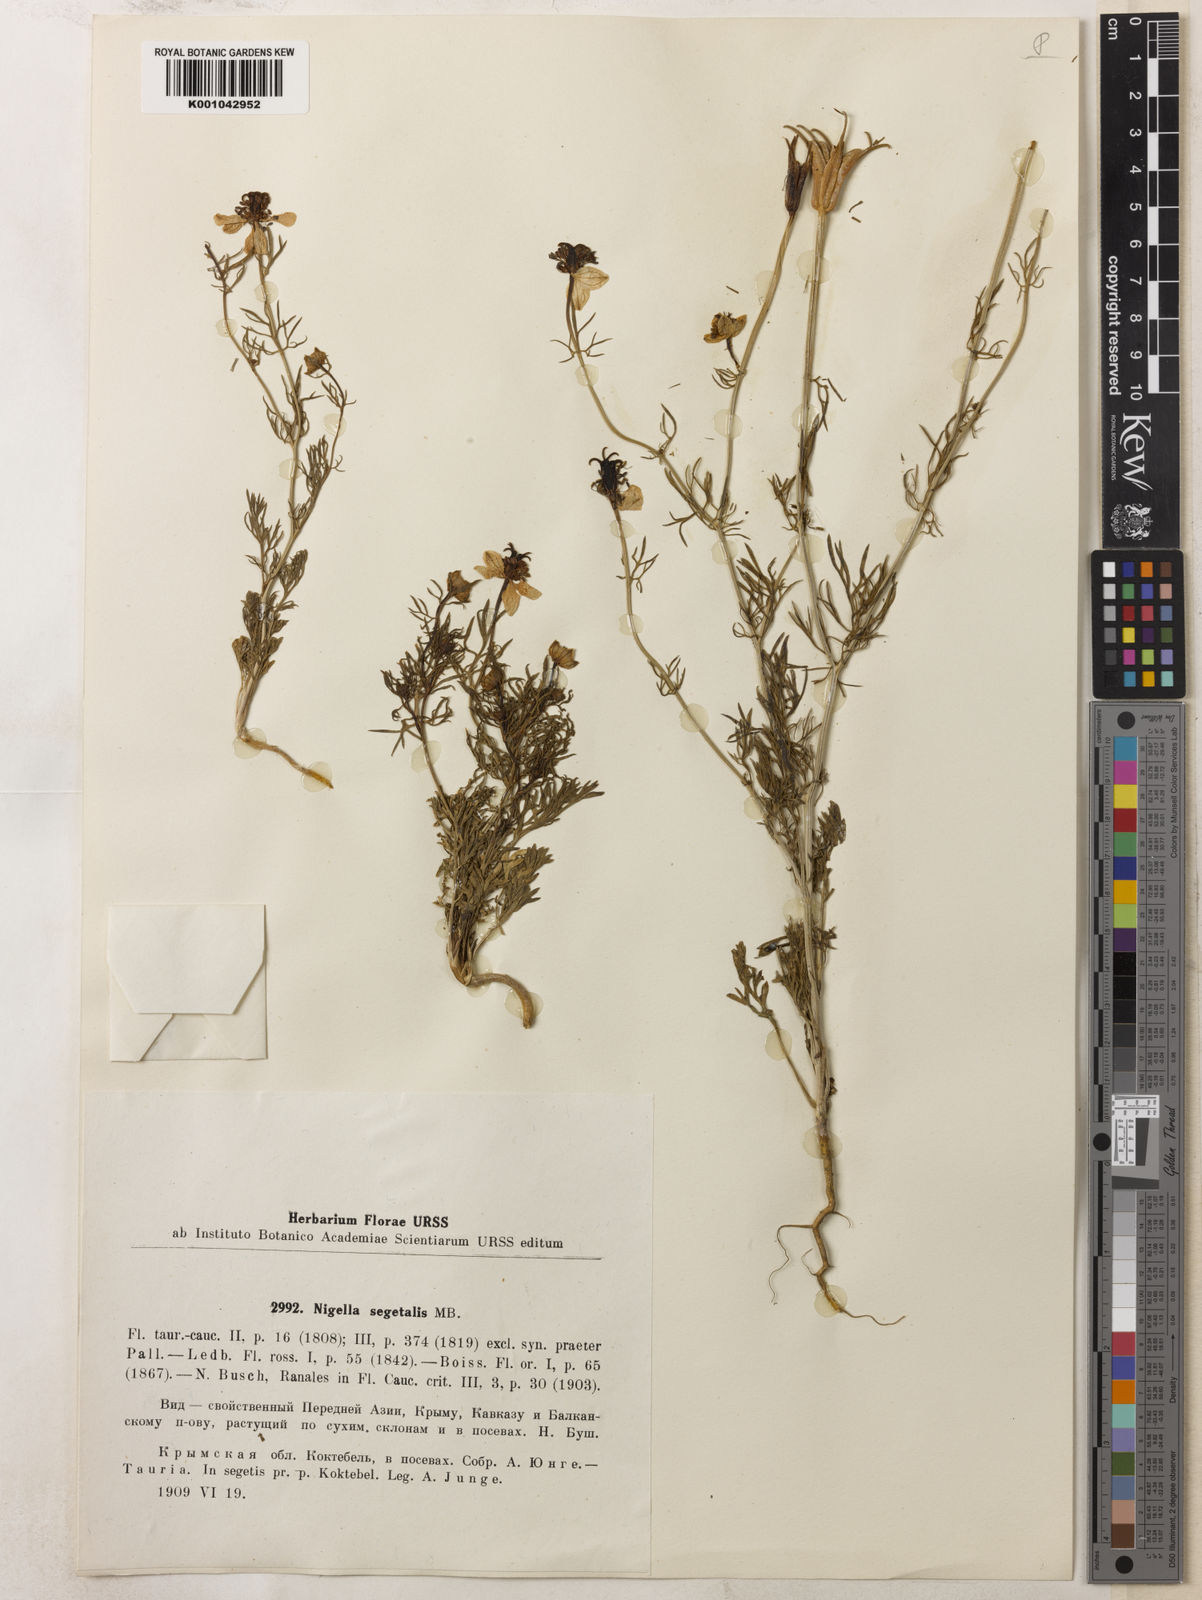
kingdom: Plantae
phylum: Tracheophyta
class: Magnoliopsida
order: Ranunculales
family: Ranunculaceae
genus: Nigella
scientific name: Nigella segetalis
